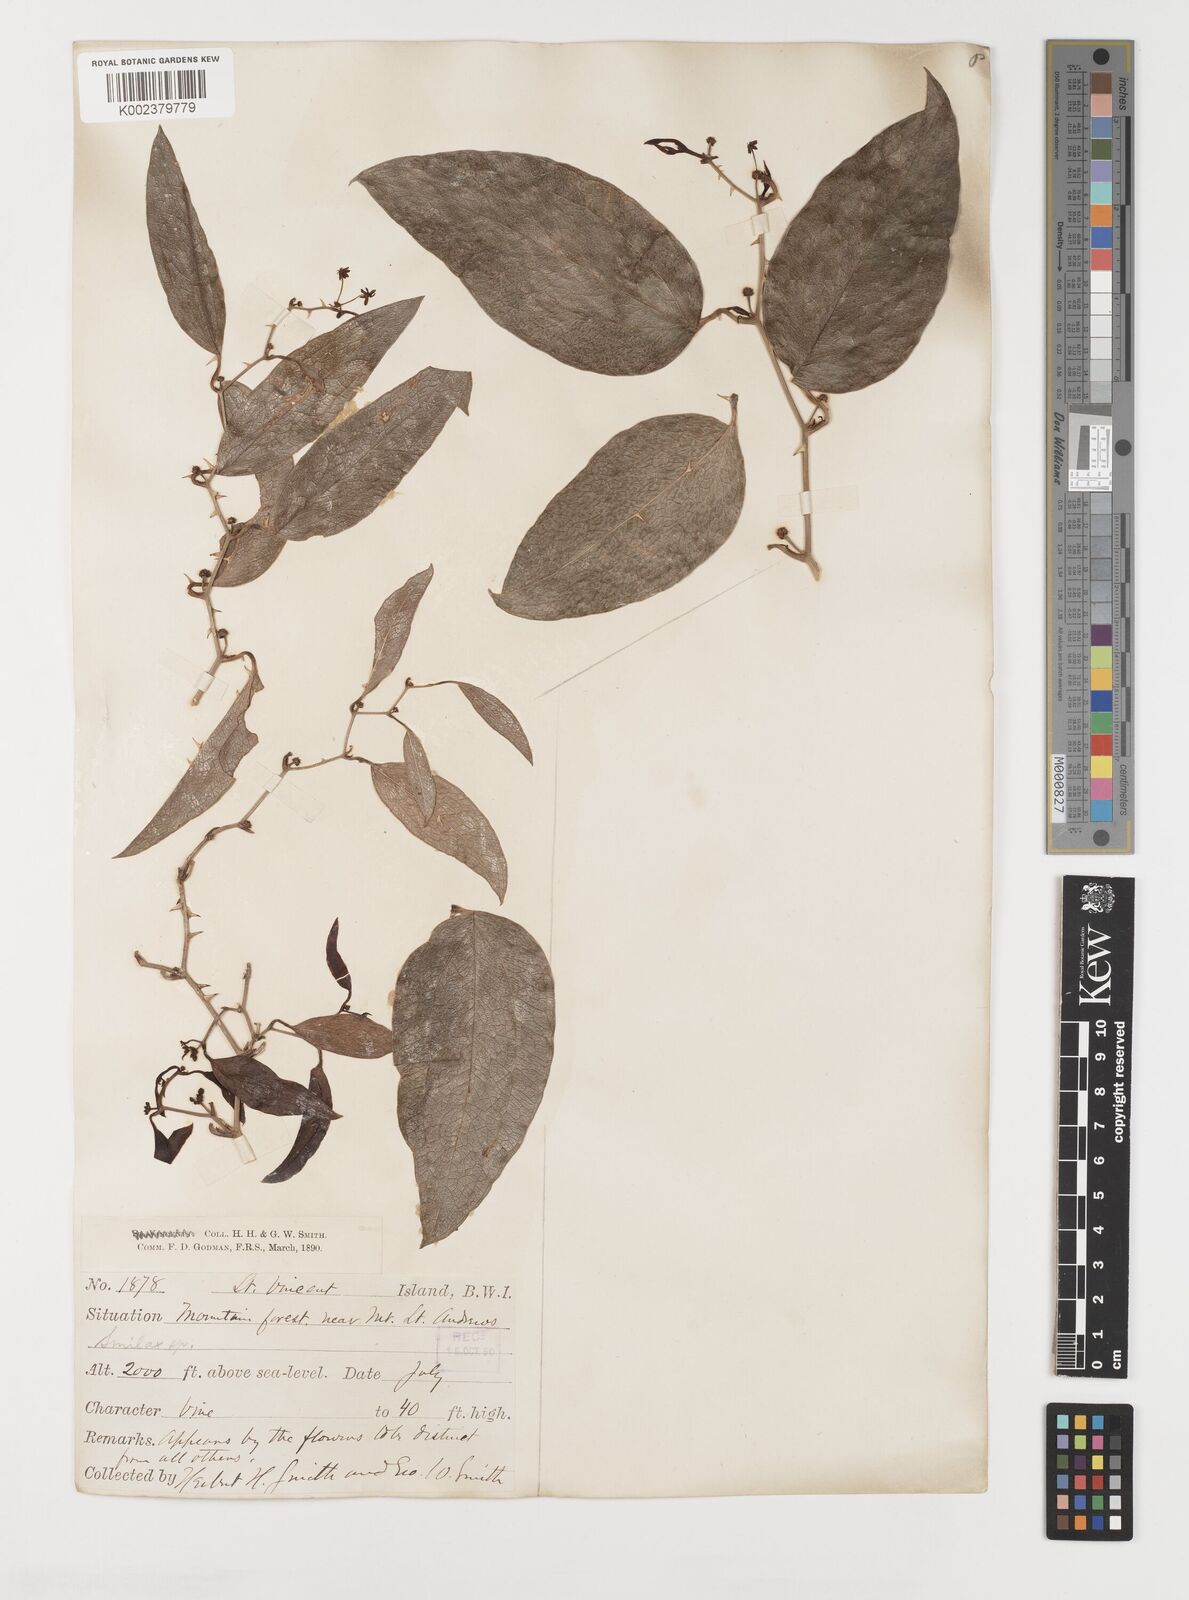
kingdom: Plantae
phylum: Tracheophyta
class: Liliopsida
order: Liliales
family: Smilacaceae
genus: Smilax
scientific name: Smilax oblongata
